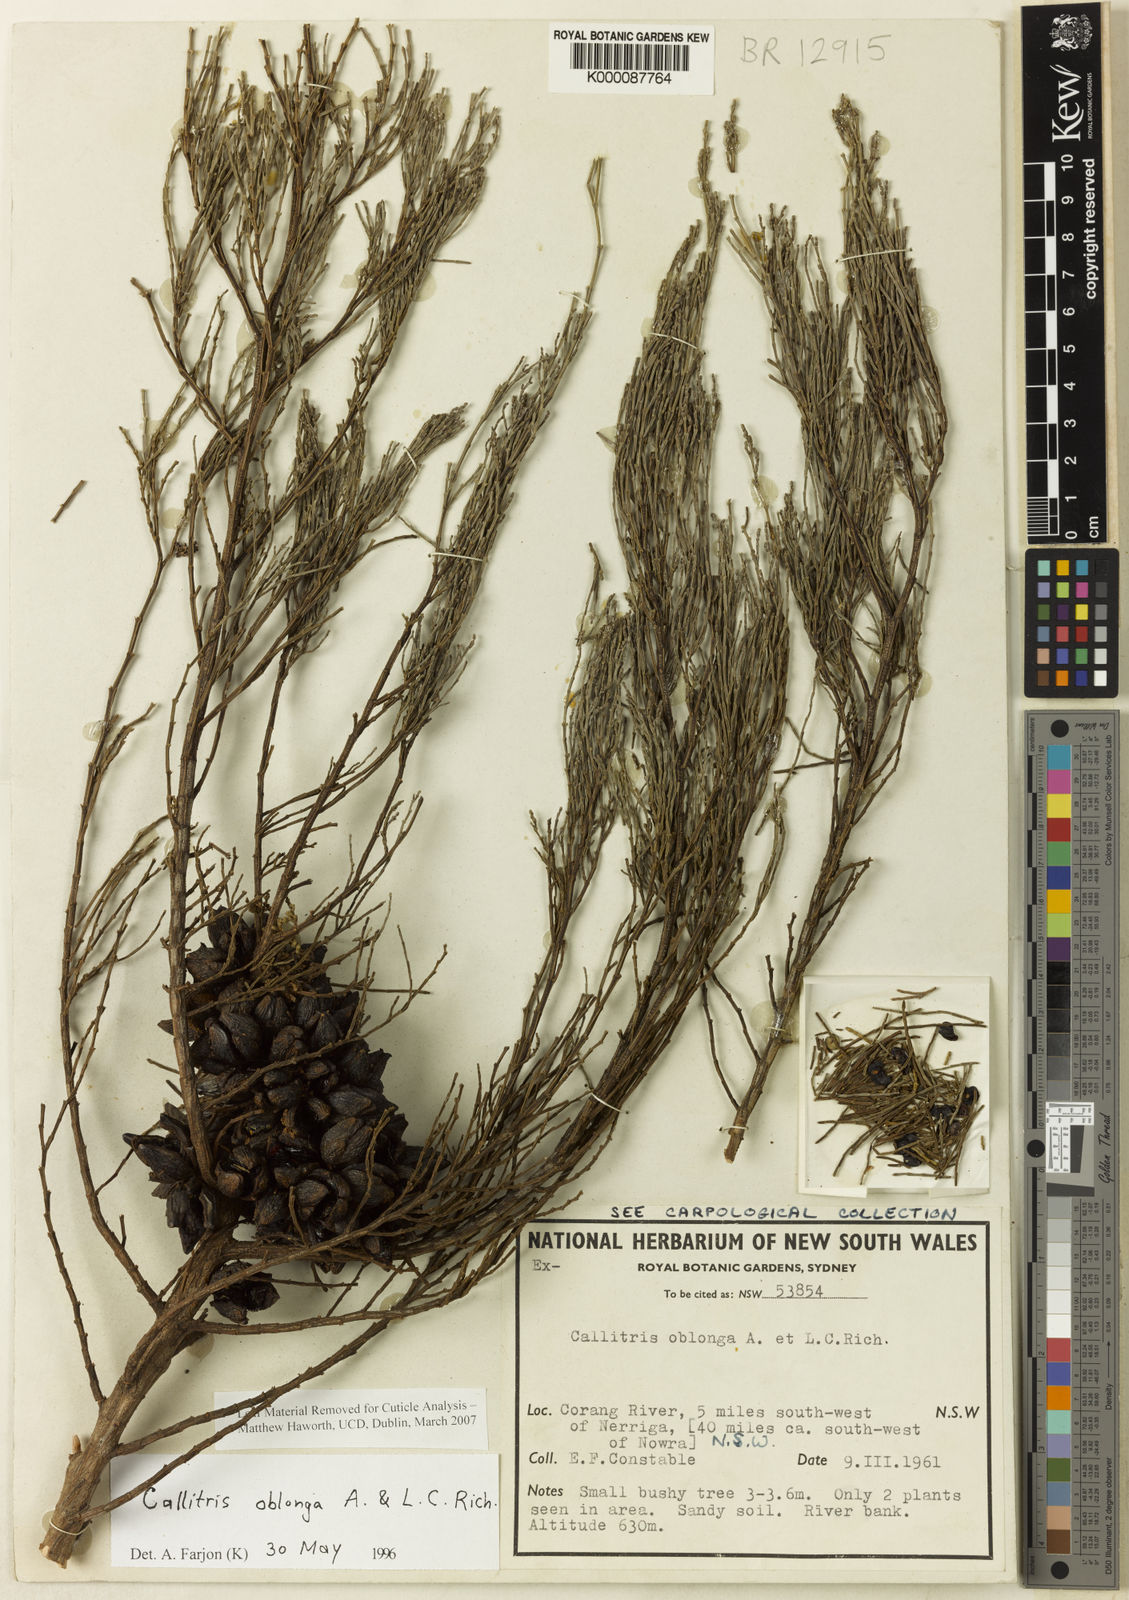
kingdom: Plantae
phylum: Tracheophyta
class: Pinopsida
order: Pinales
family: Cupressaceae
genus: Callitris
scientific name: Callitris oblonga
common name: Dwarf cypress-pine
